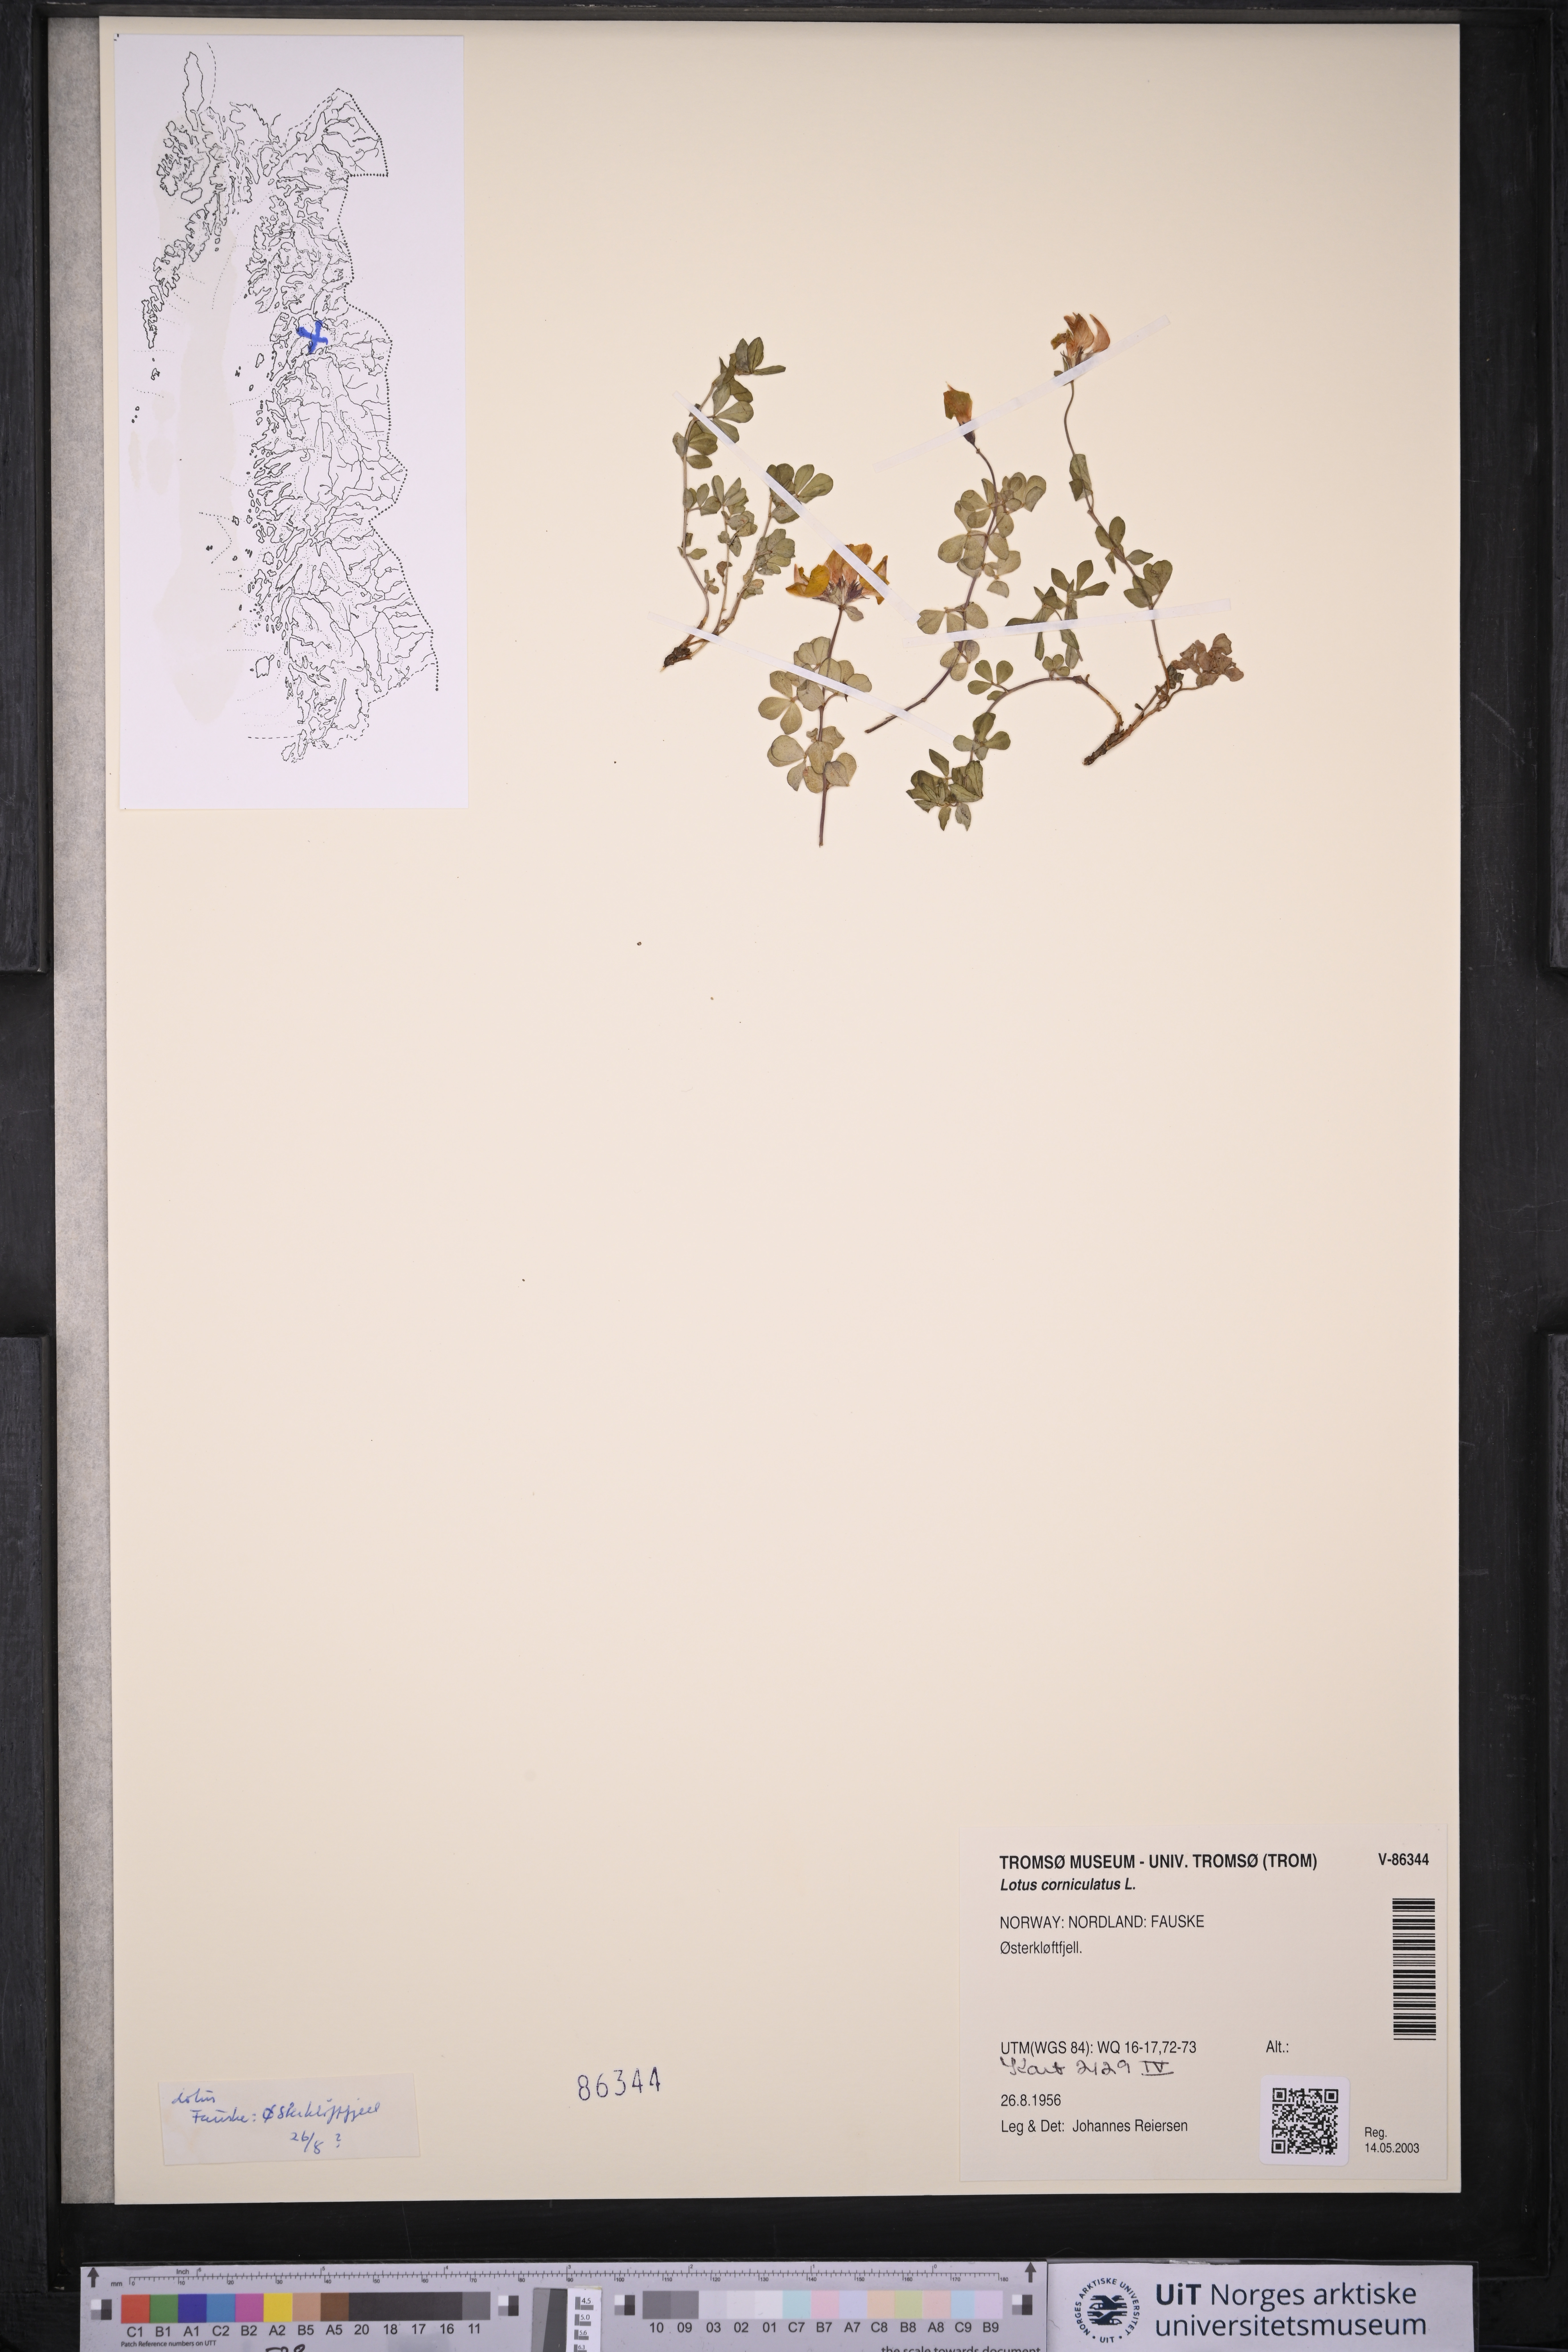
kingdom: Plantae
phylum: Tracheophyta
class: Magnoliopsida
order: Fabales
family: Fabaceae
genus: Lotus
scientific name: Lotus corniculatus
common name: Common bird's-foot-trefoil
